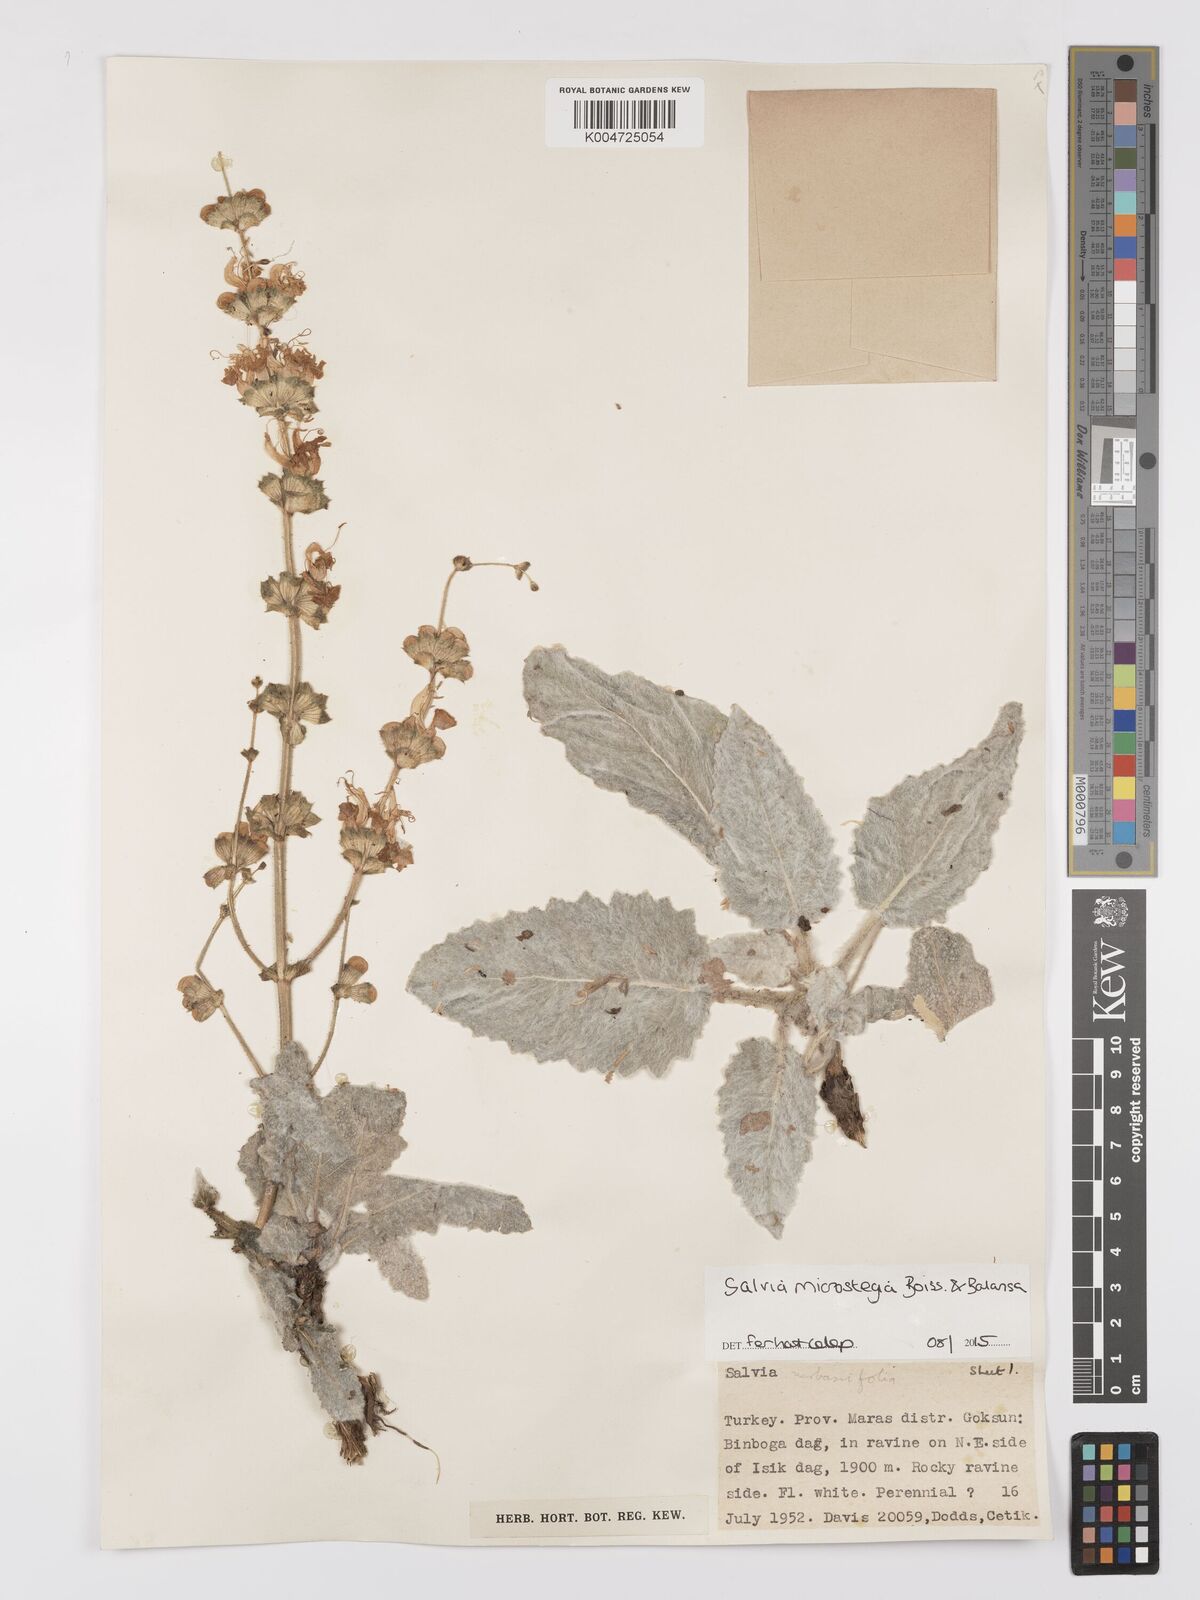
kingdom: Plantae
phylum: Tracheophyta
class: Magnoliopsida
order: Lamiales
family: Lamiaceae
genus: Salvia
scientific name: Salvia microstegia
